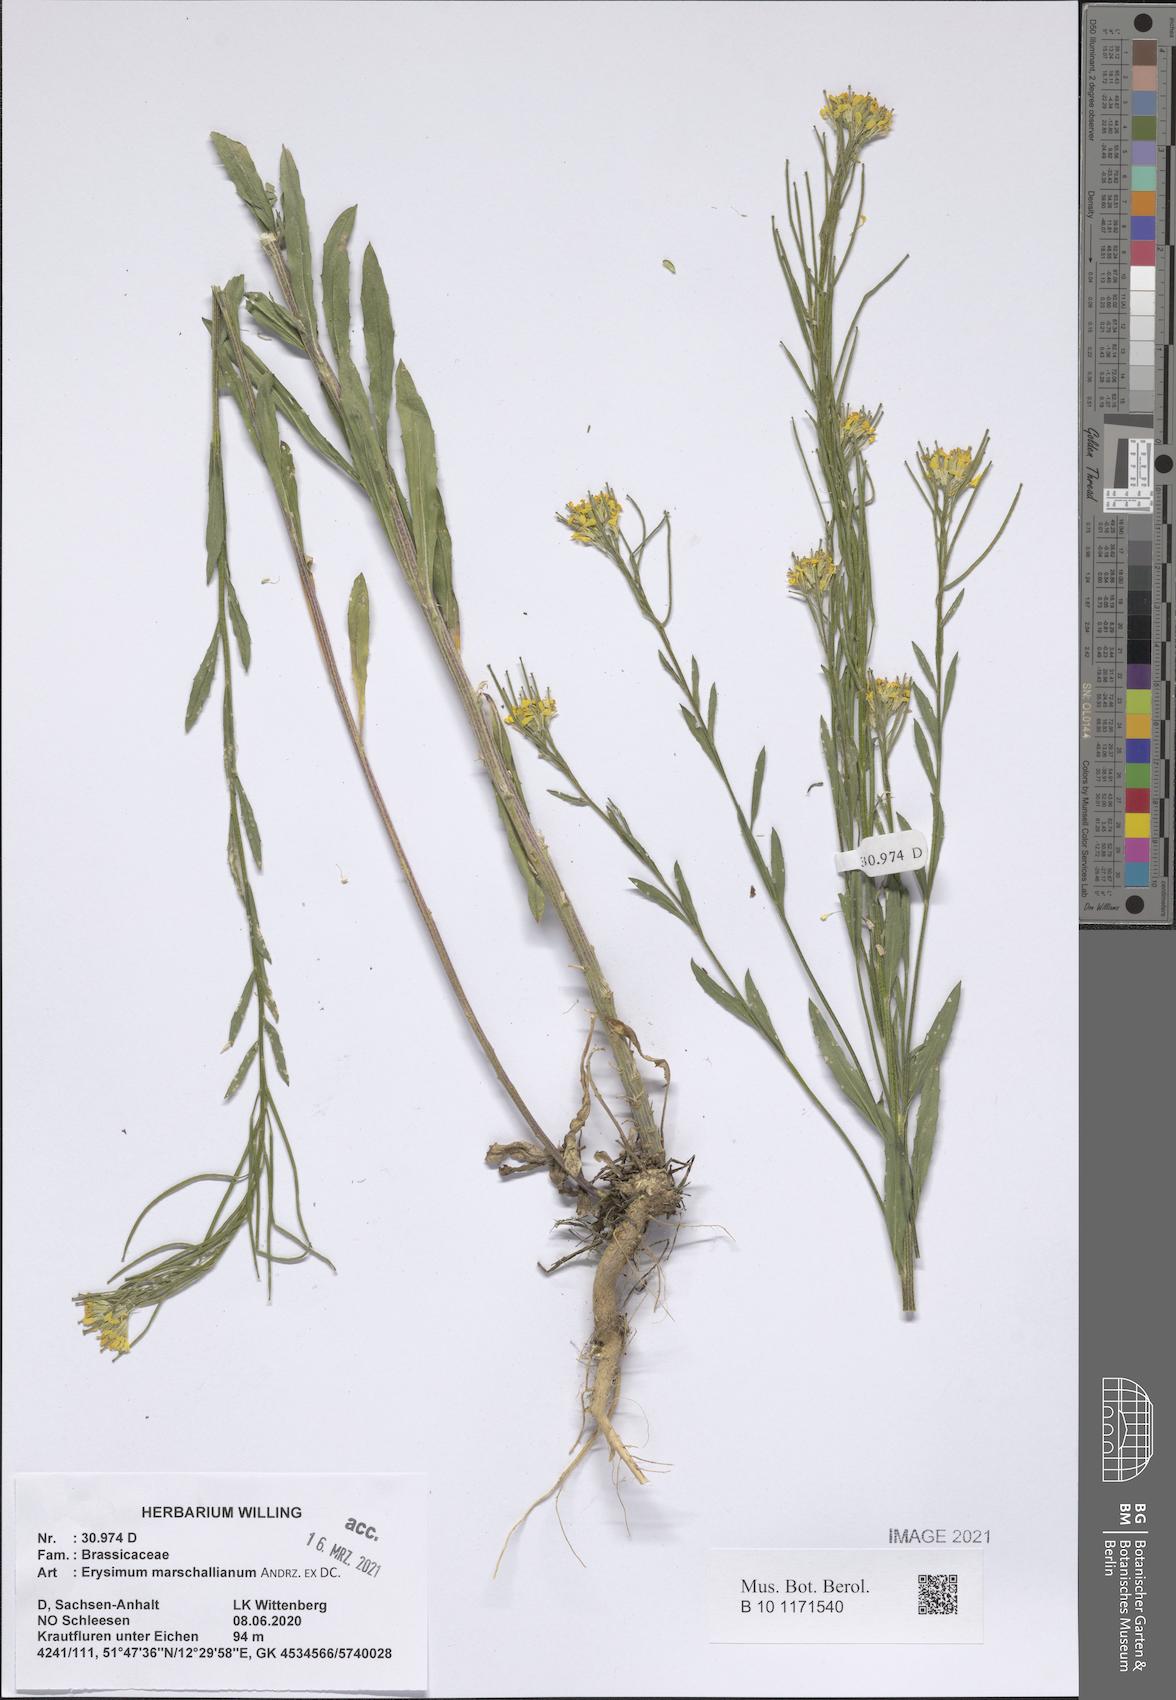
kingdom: Plantae
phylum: Tracheophyta
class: Magnoliopsida
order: Brassicales
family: Brassicaceae
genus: Erysimum
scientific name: Erysimum marschallianum
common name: Hard wallflower
